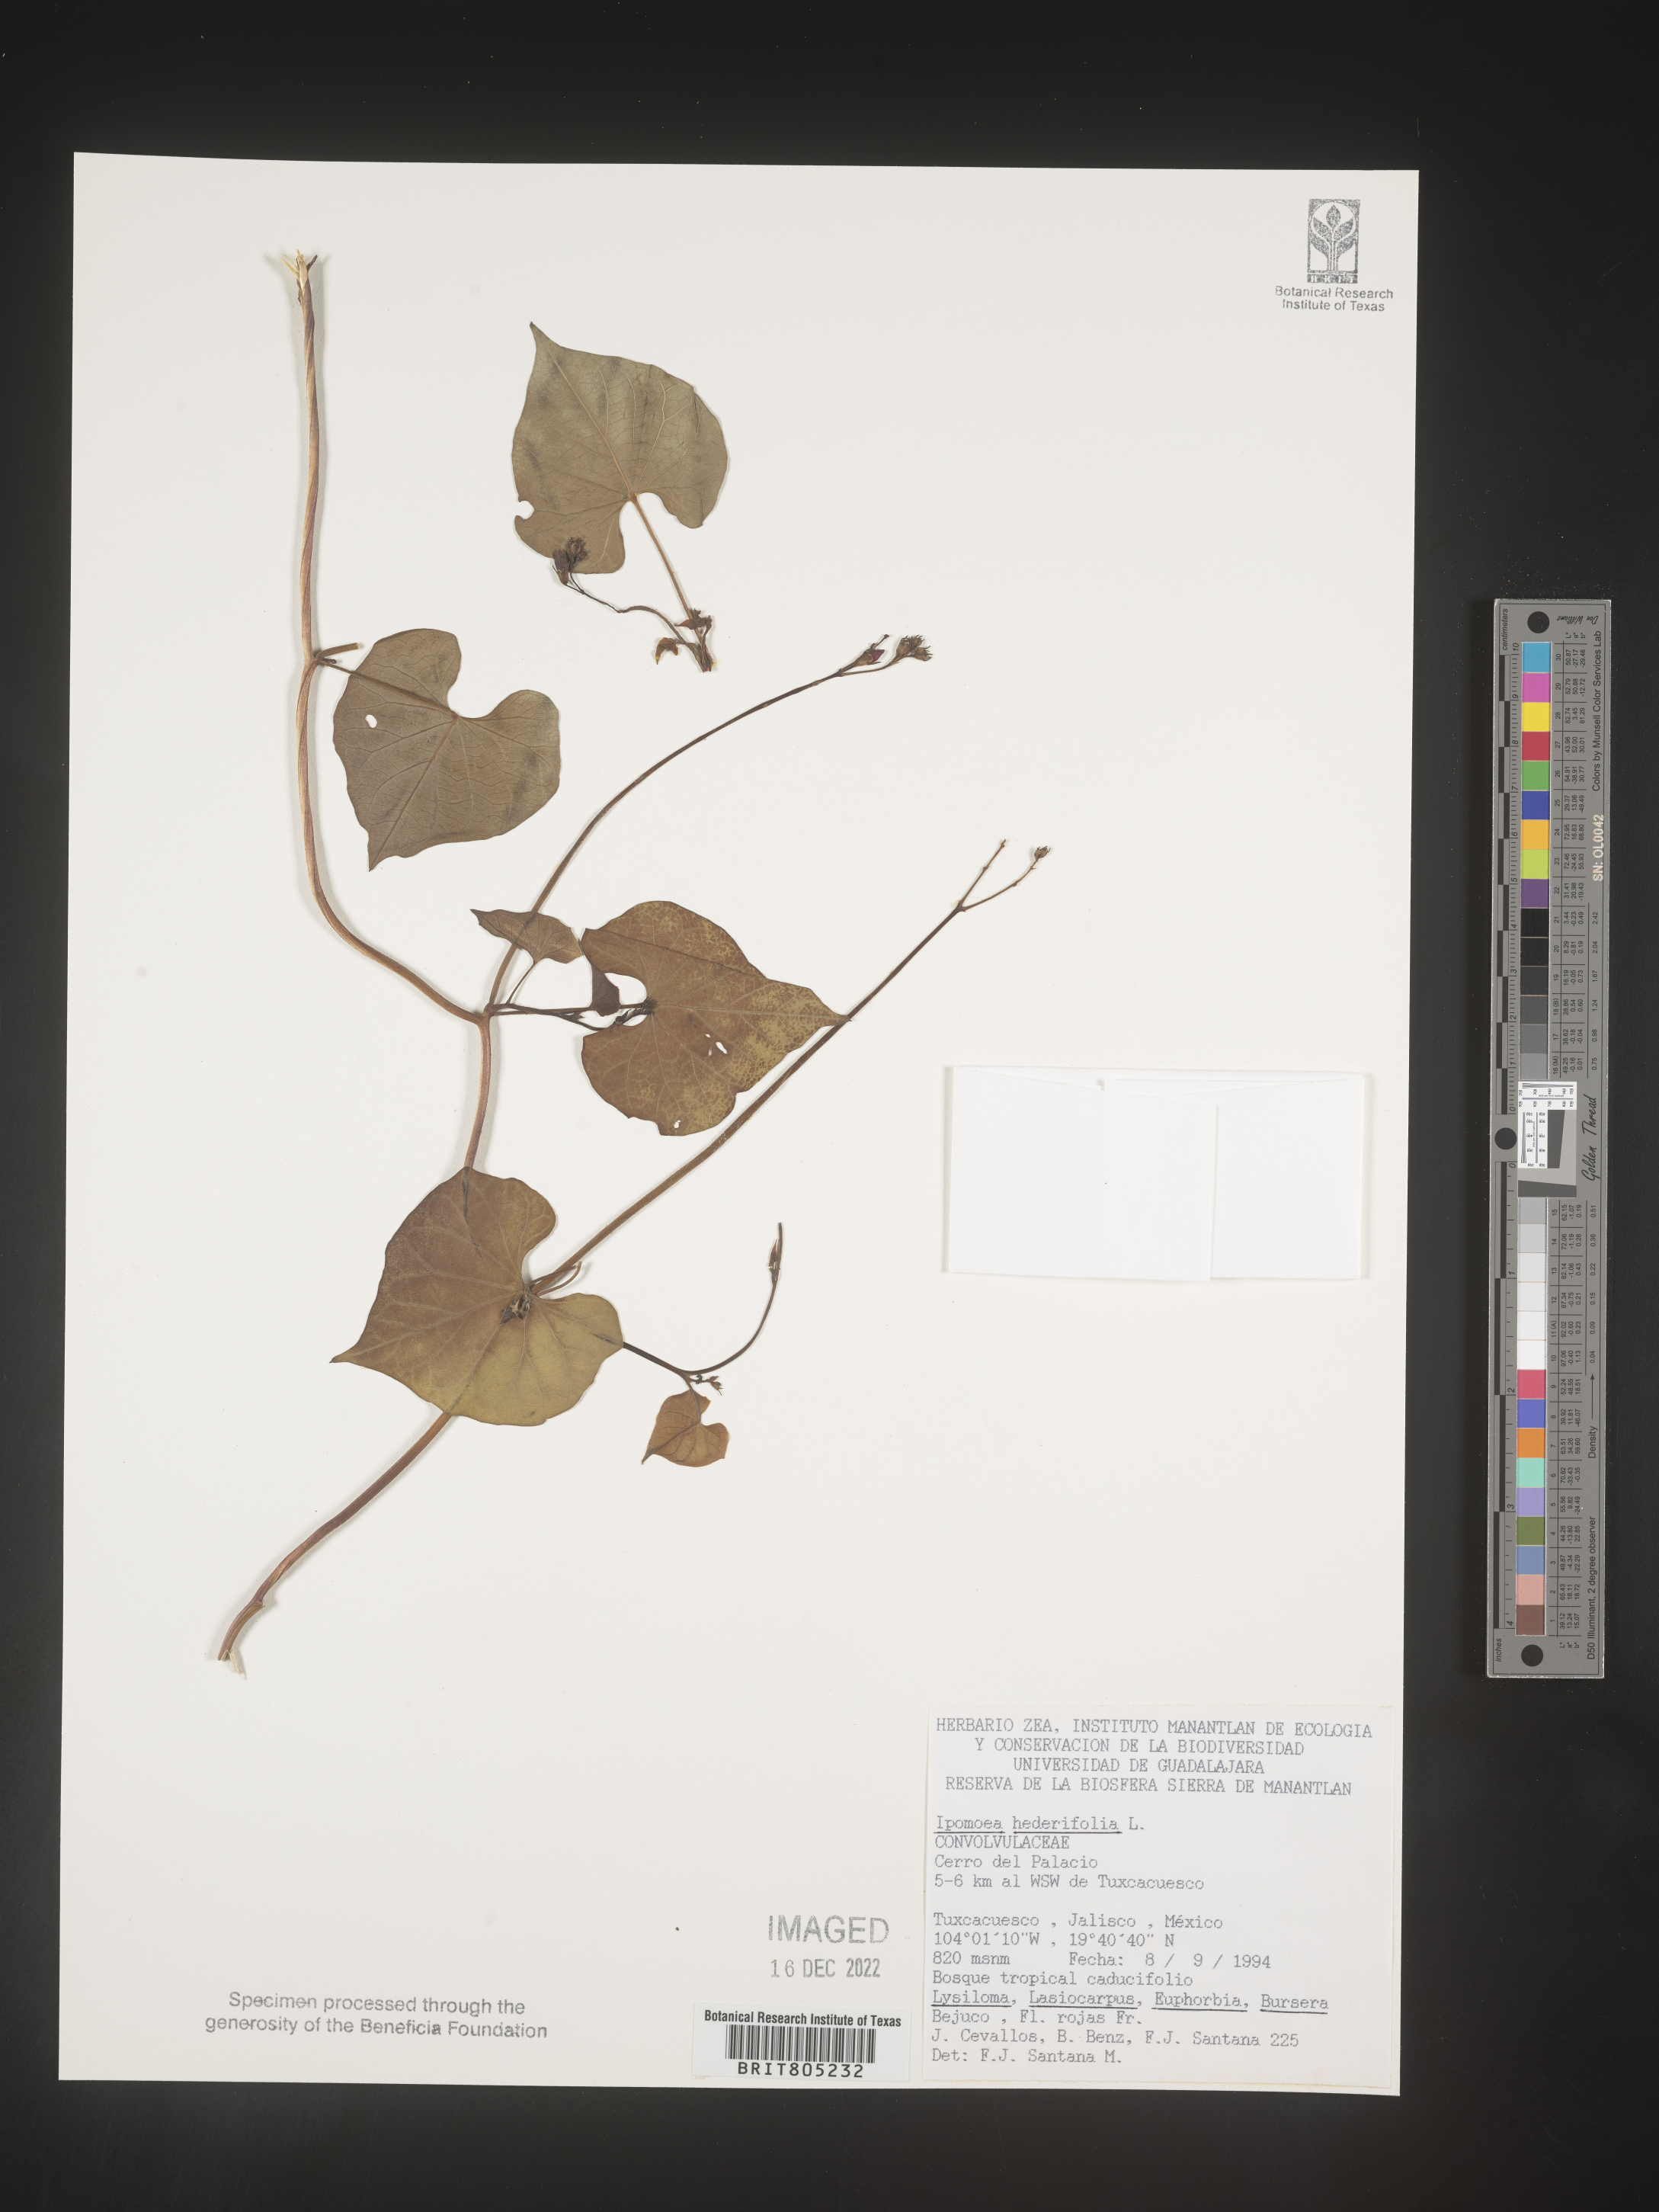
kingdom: Plantae
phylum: Tracheophyta
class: Magnoliopsida
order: Solanales
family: Convolvulaceae
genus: Ipomoea
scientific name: Ipomoea
